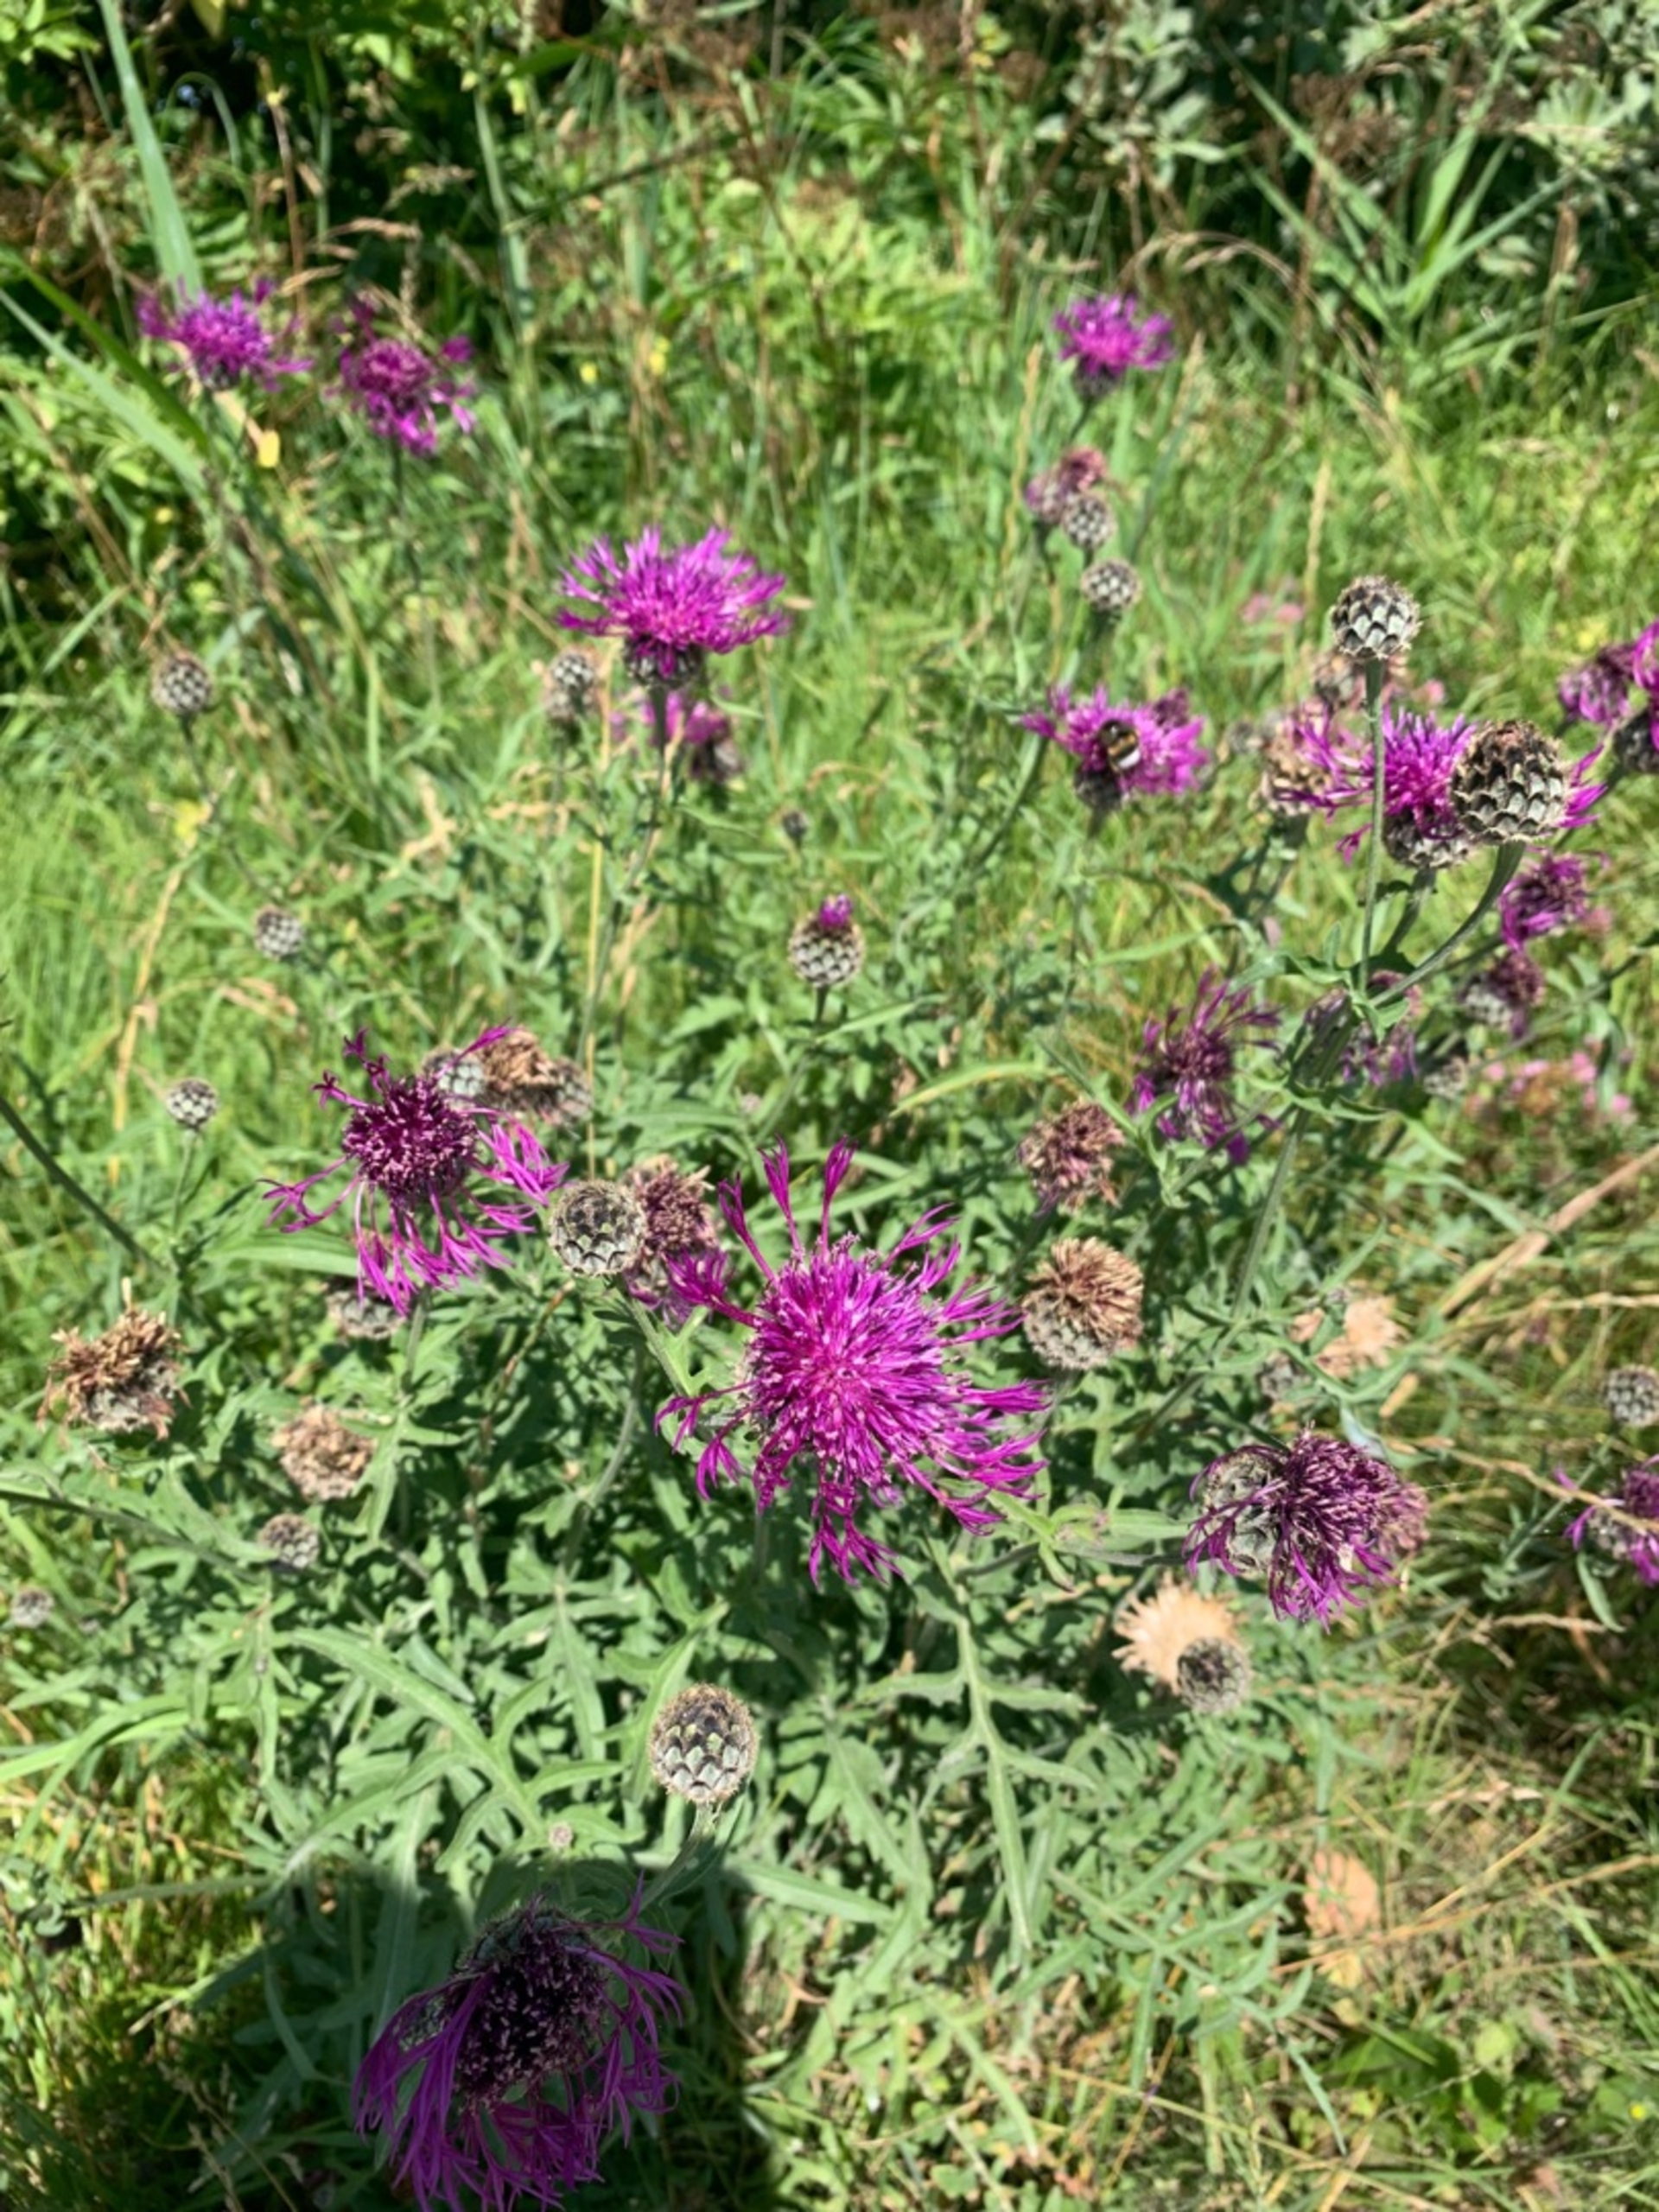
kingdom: Plantae
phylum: Tracheophyta
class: Magnoliopsida
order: Asterales
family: Asteraceae
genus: Centaurea
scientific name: Centaurea scabiosa
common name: Stor knopurt
